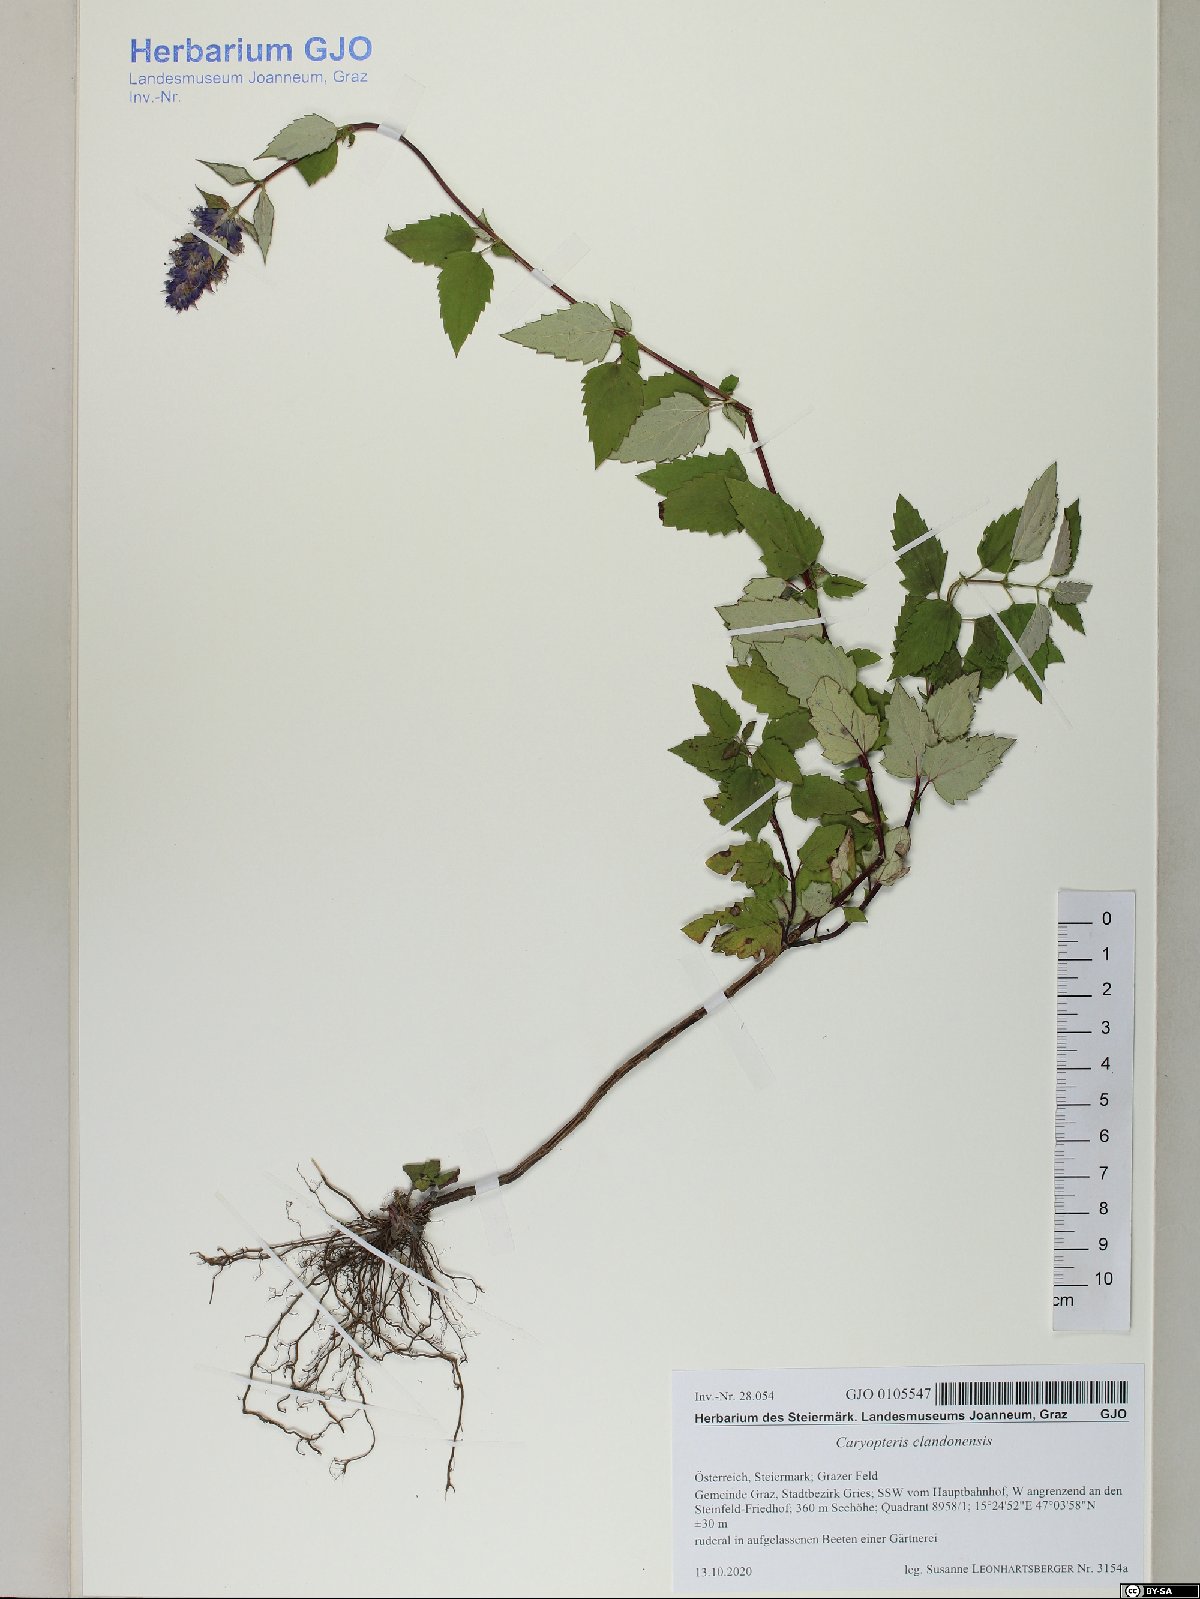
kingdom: Plantae
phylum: Tracheophyta
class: Magnoliopsida
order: Lamiales
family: Lamiaceae
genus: Caryopteris
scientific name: Caryopteris clandonensis
